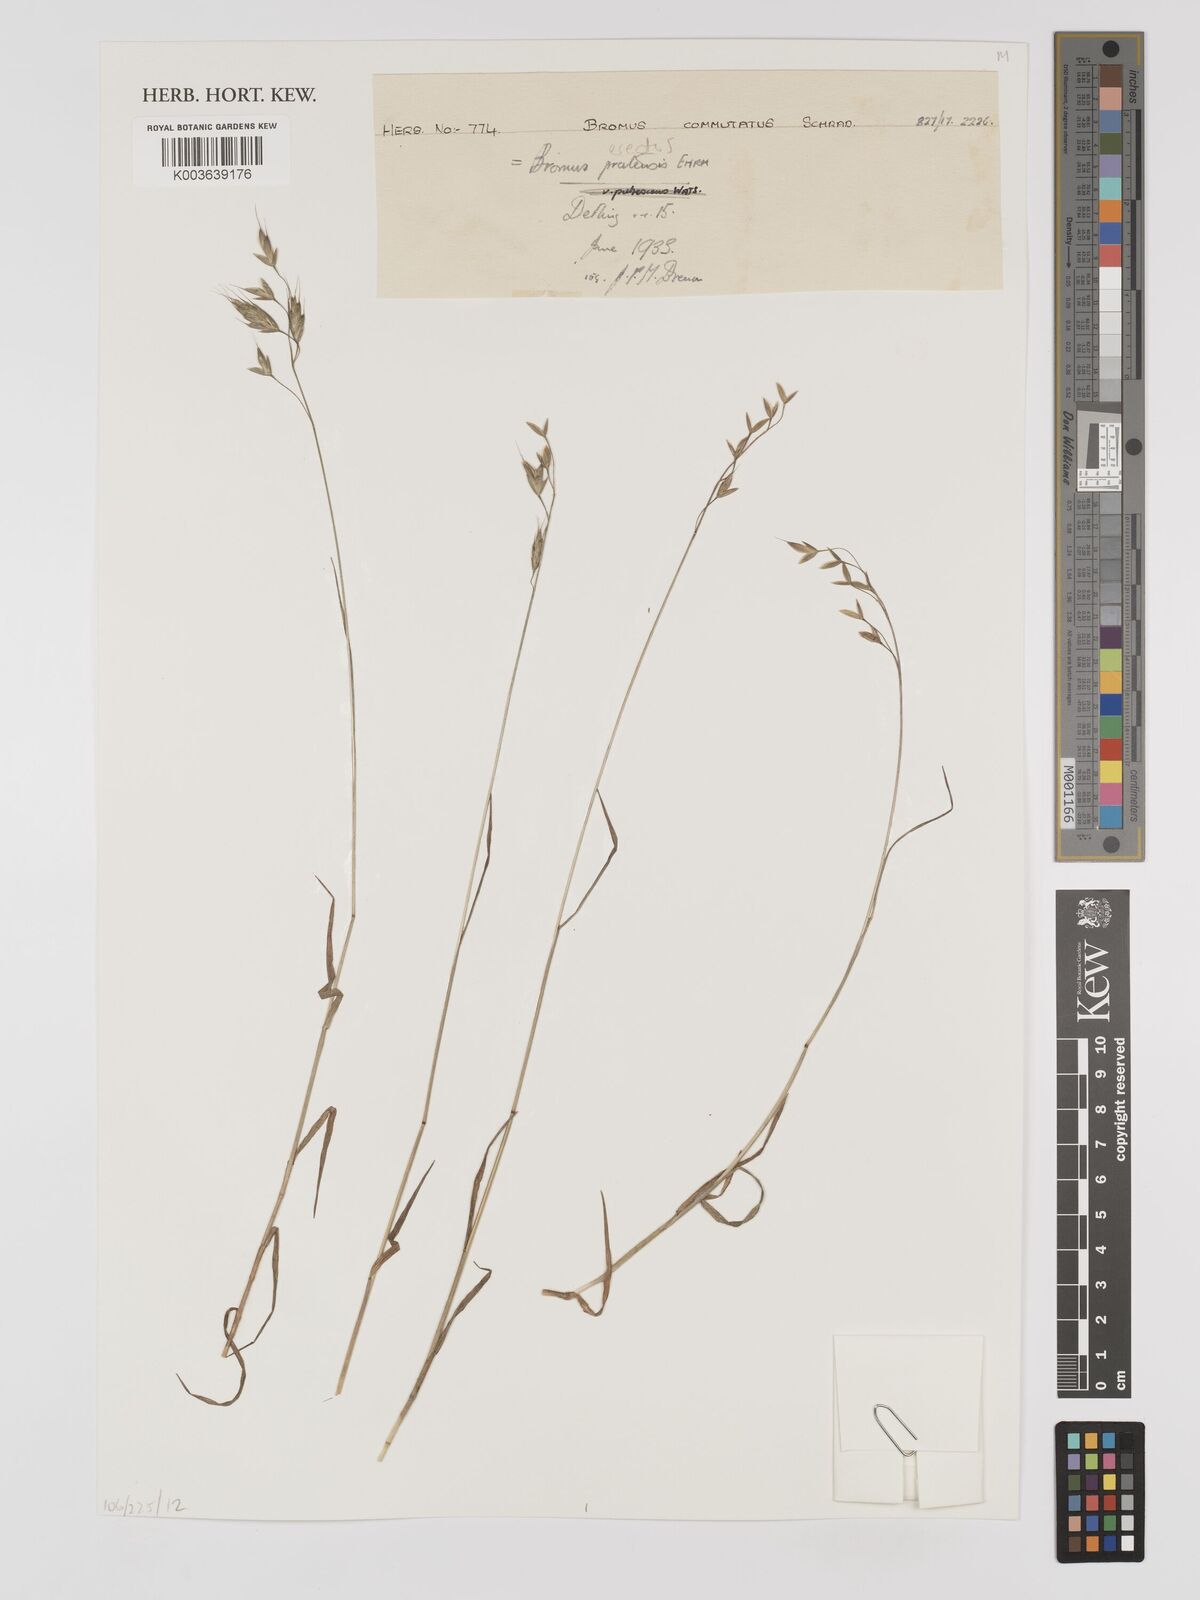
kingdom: Plantae
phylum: Tracheophyta
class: Liliopsida
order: Poales
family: Poaceae
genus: Bromus
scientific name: Bromus erectus
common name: Erect brome
